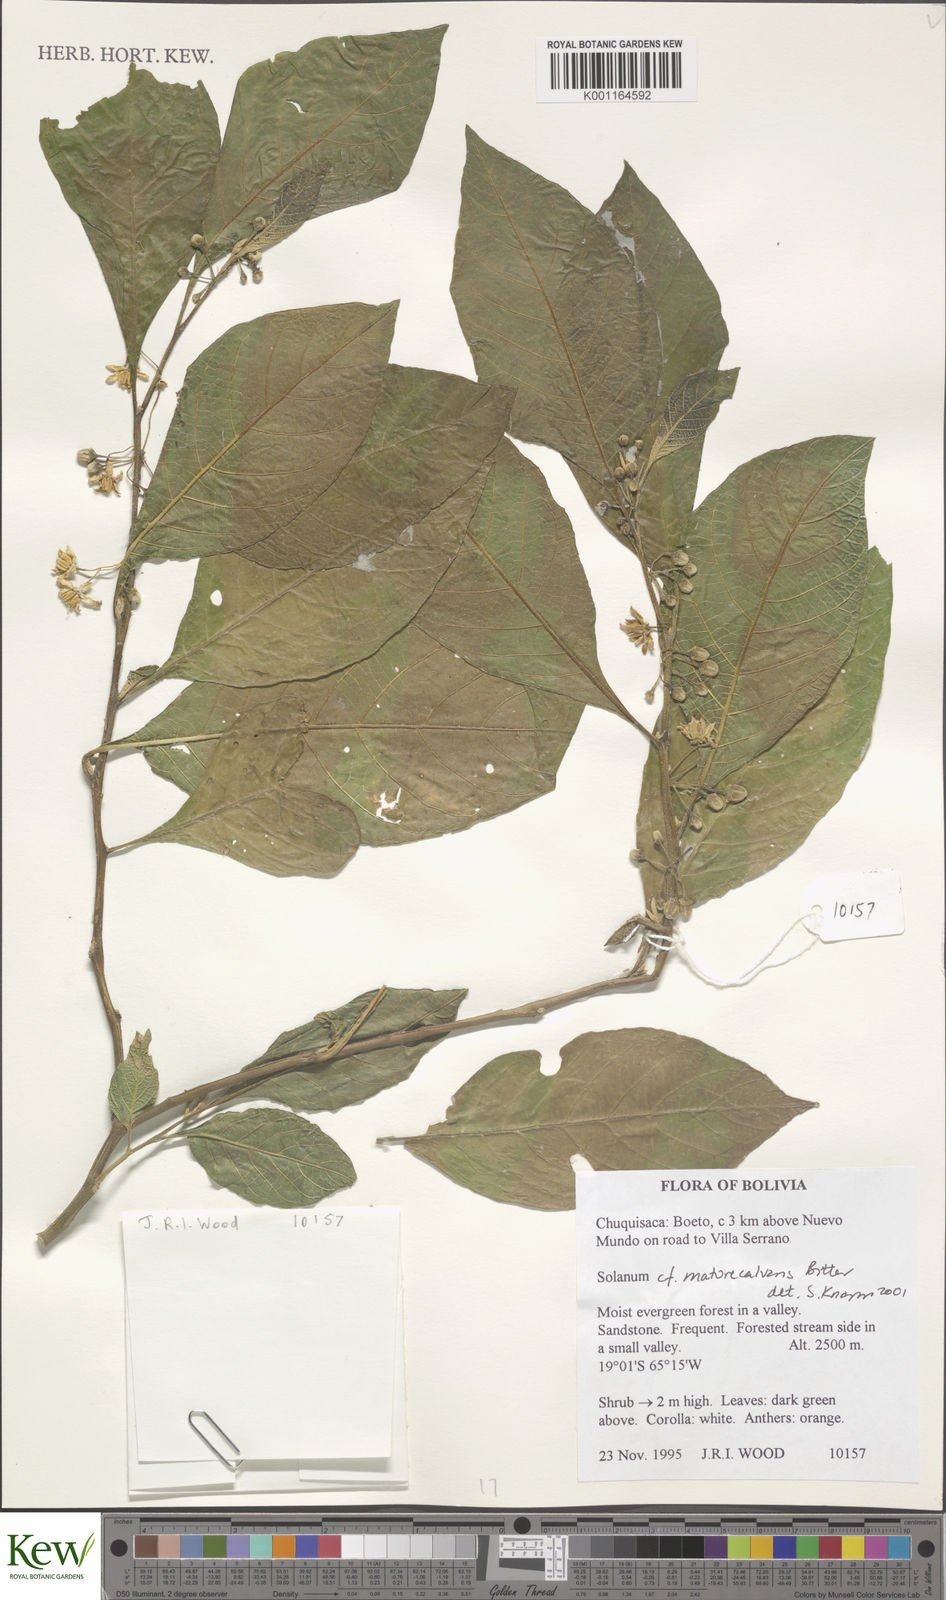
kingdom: Plantae
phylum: Tracheophyta
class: Magnoliopsida
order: Solanales
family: Solanaceae
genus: Solanum
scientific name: Solanum maturecalvans
